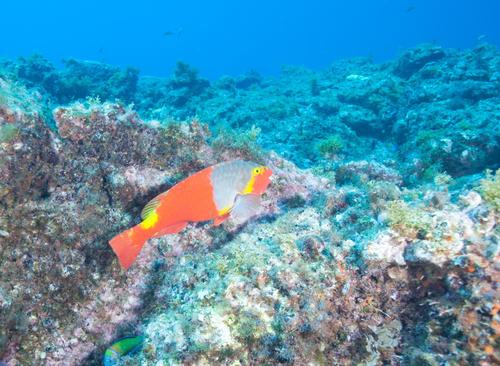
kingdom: Animalia
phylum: Chordata
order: Perciformes
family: Scaridae
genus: Sparisoma
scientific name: Sparisoma cretense
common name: Parrotfish
